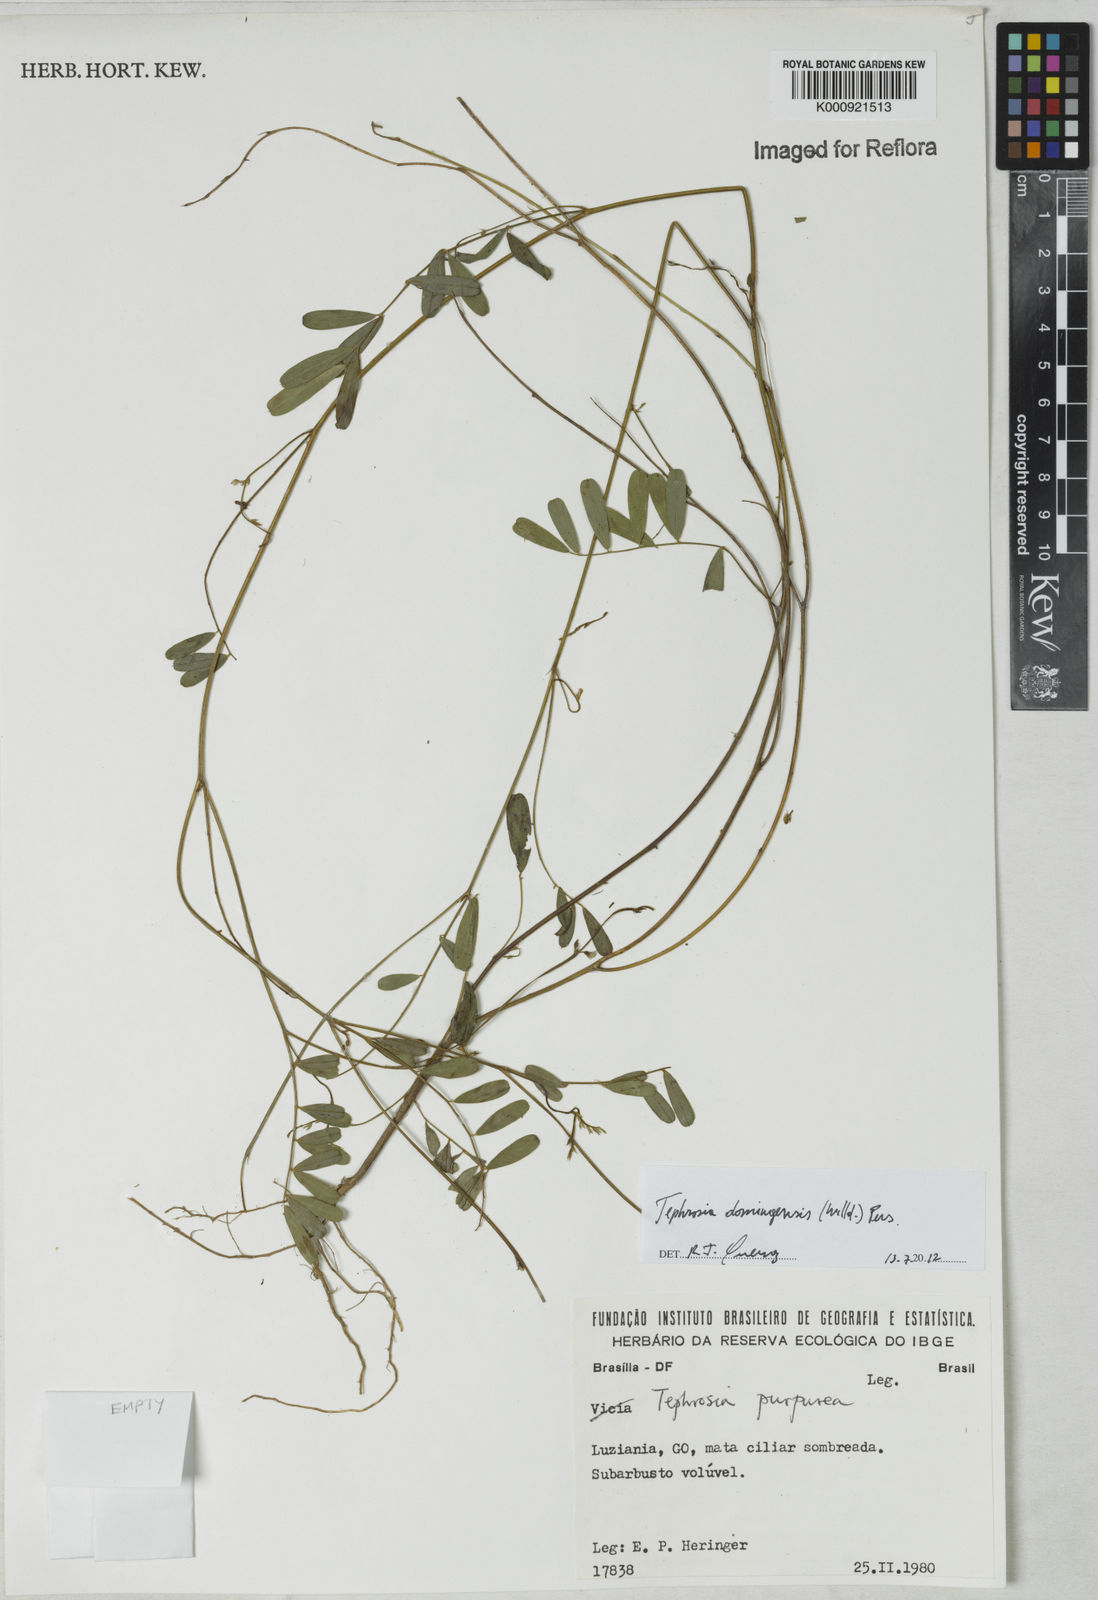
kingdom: Plantae
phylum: Tracheophyta
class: Magnoliopsida
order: Fabales
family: Fabaceae
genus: Tephrosia
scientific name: Tephrosia domingensis
